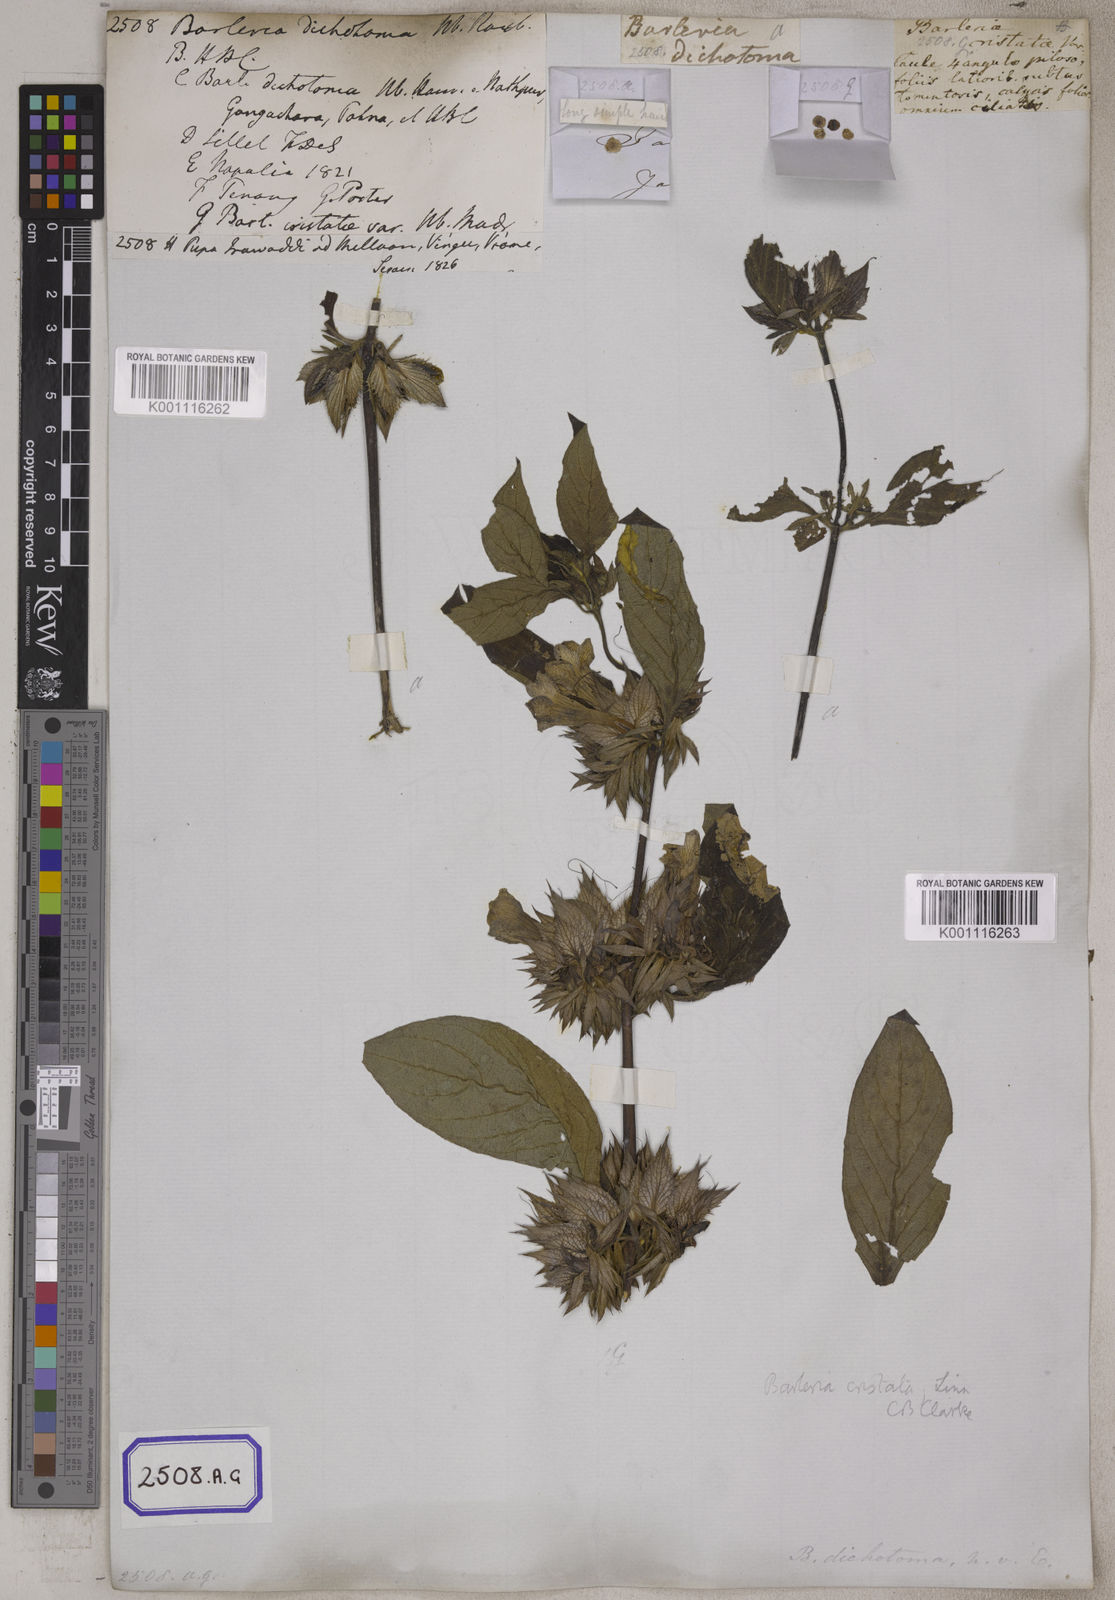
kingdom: Plantae
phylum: Tracheophyta
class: Magnoliopsida
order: Lamiales
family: Acanthaceae
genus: Barleria
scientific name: Barleria cristata
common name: Crested philippine violet
